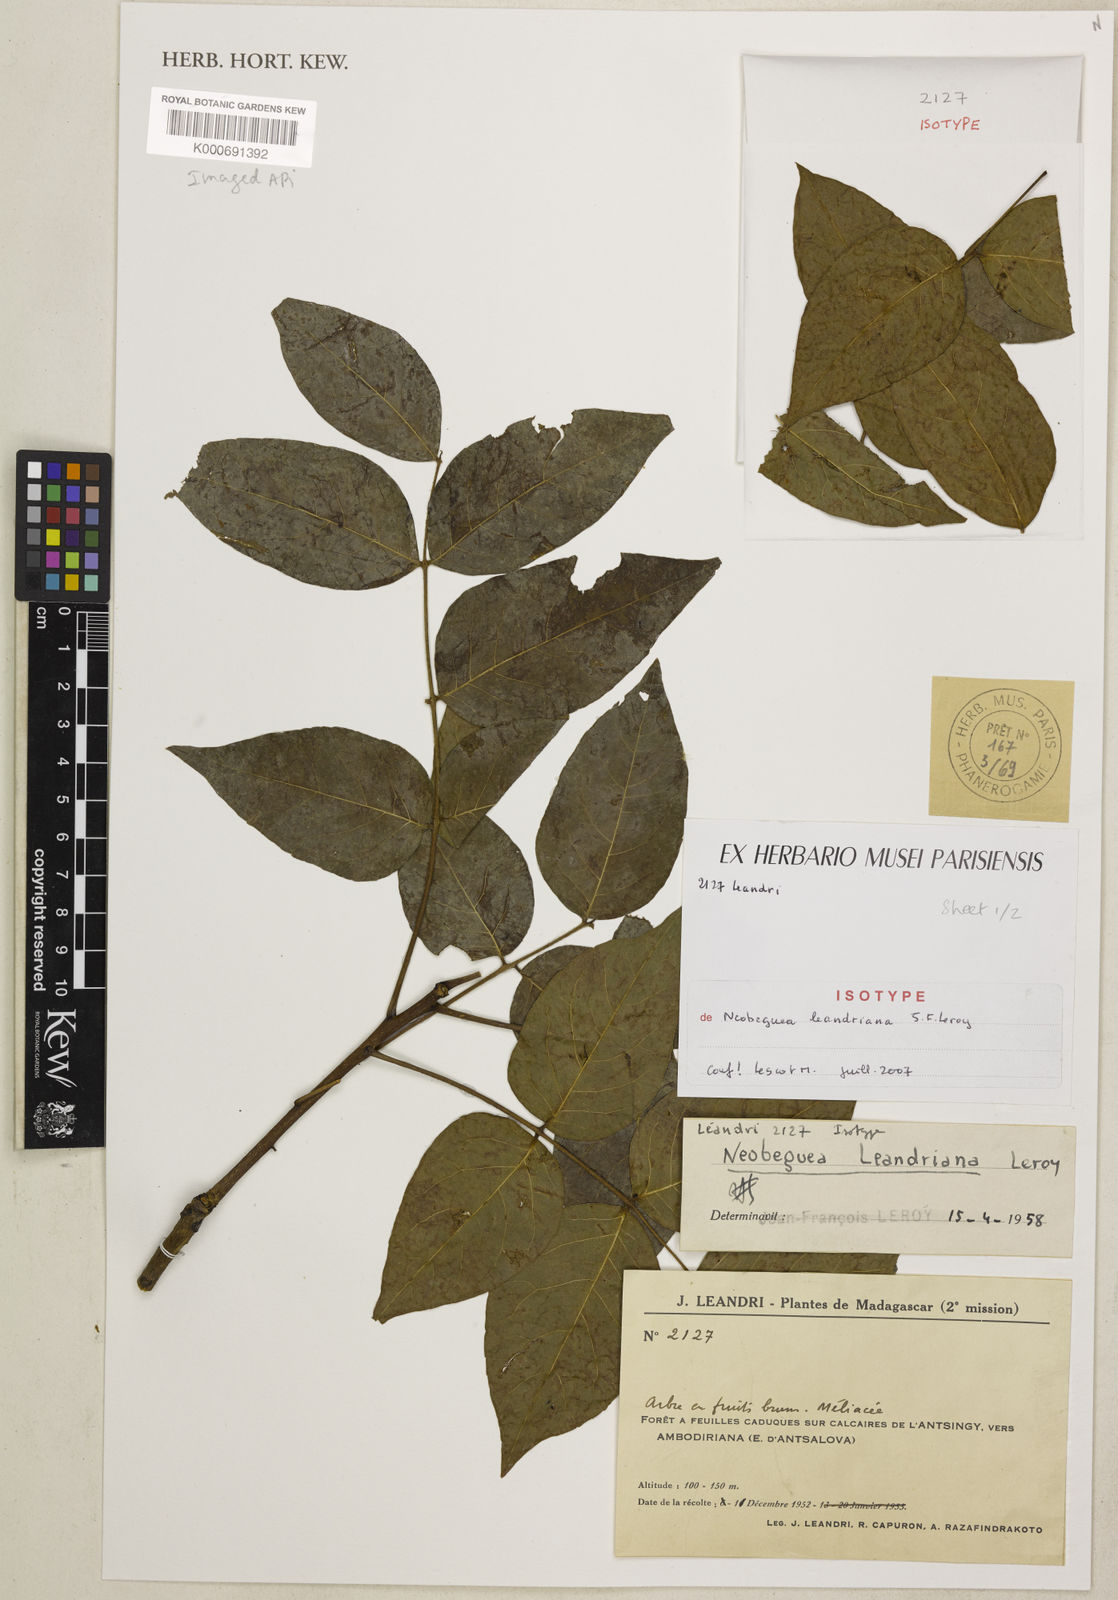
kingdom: Plantae
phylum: Tracheophyta
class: Magnoliopsida
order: Sapindales
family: Meliaceae
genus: Neobeguea
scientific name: Neobeguea leandriana
